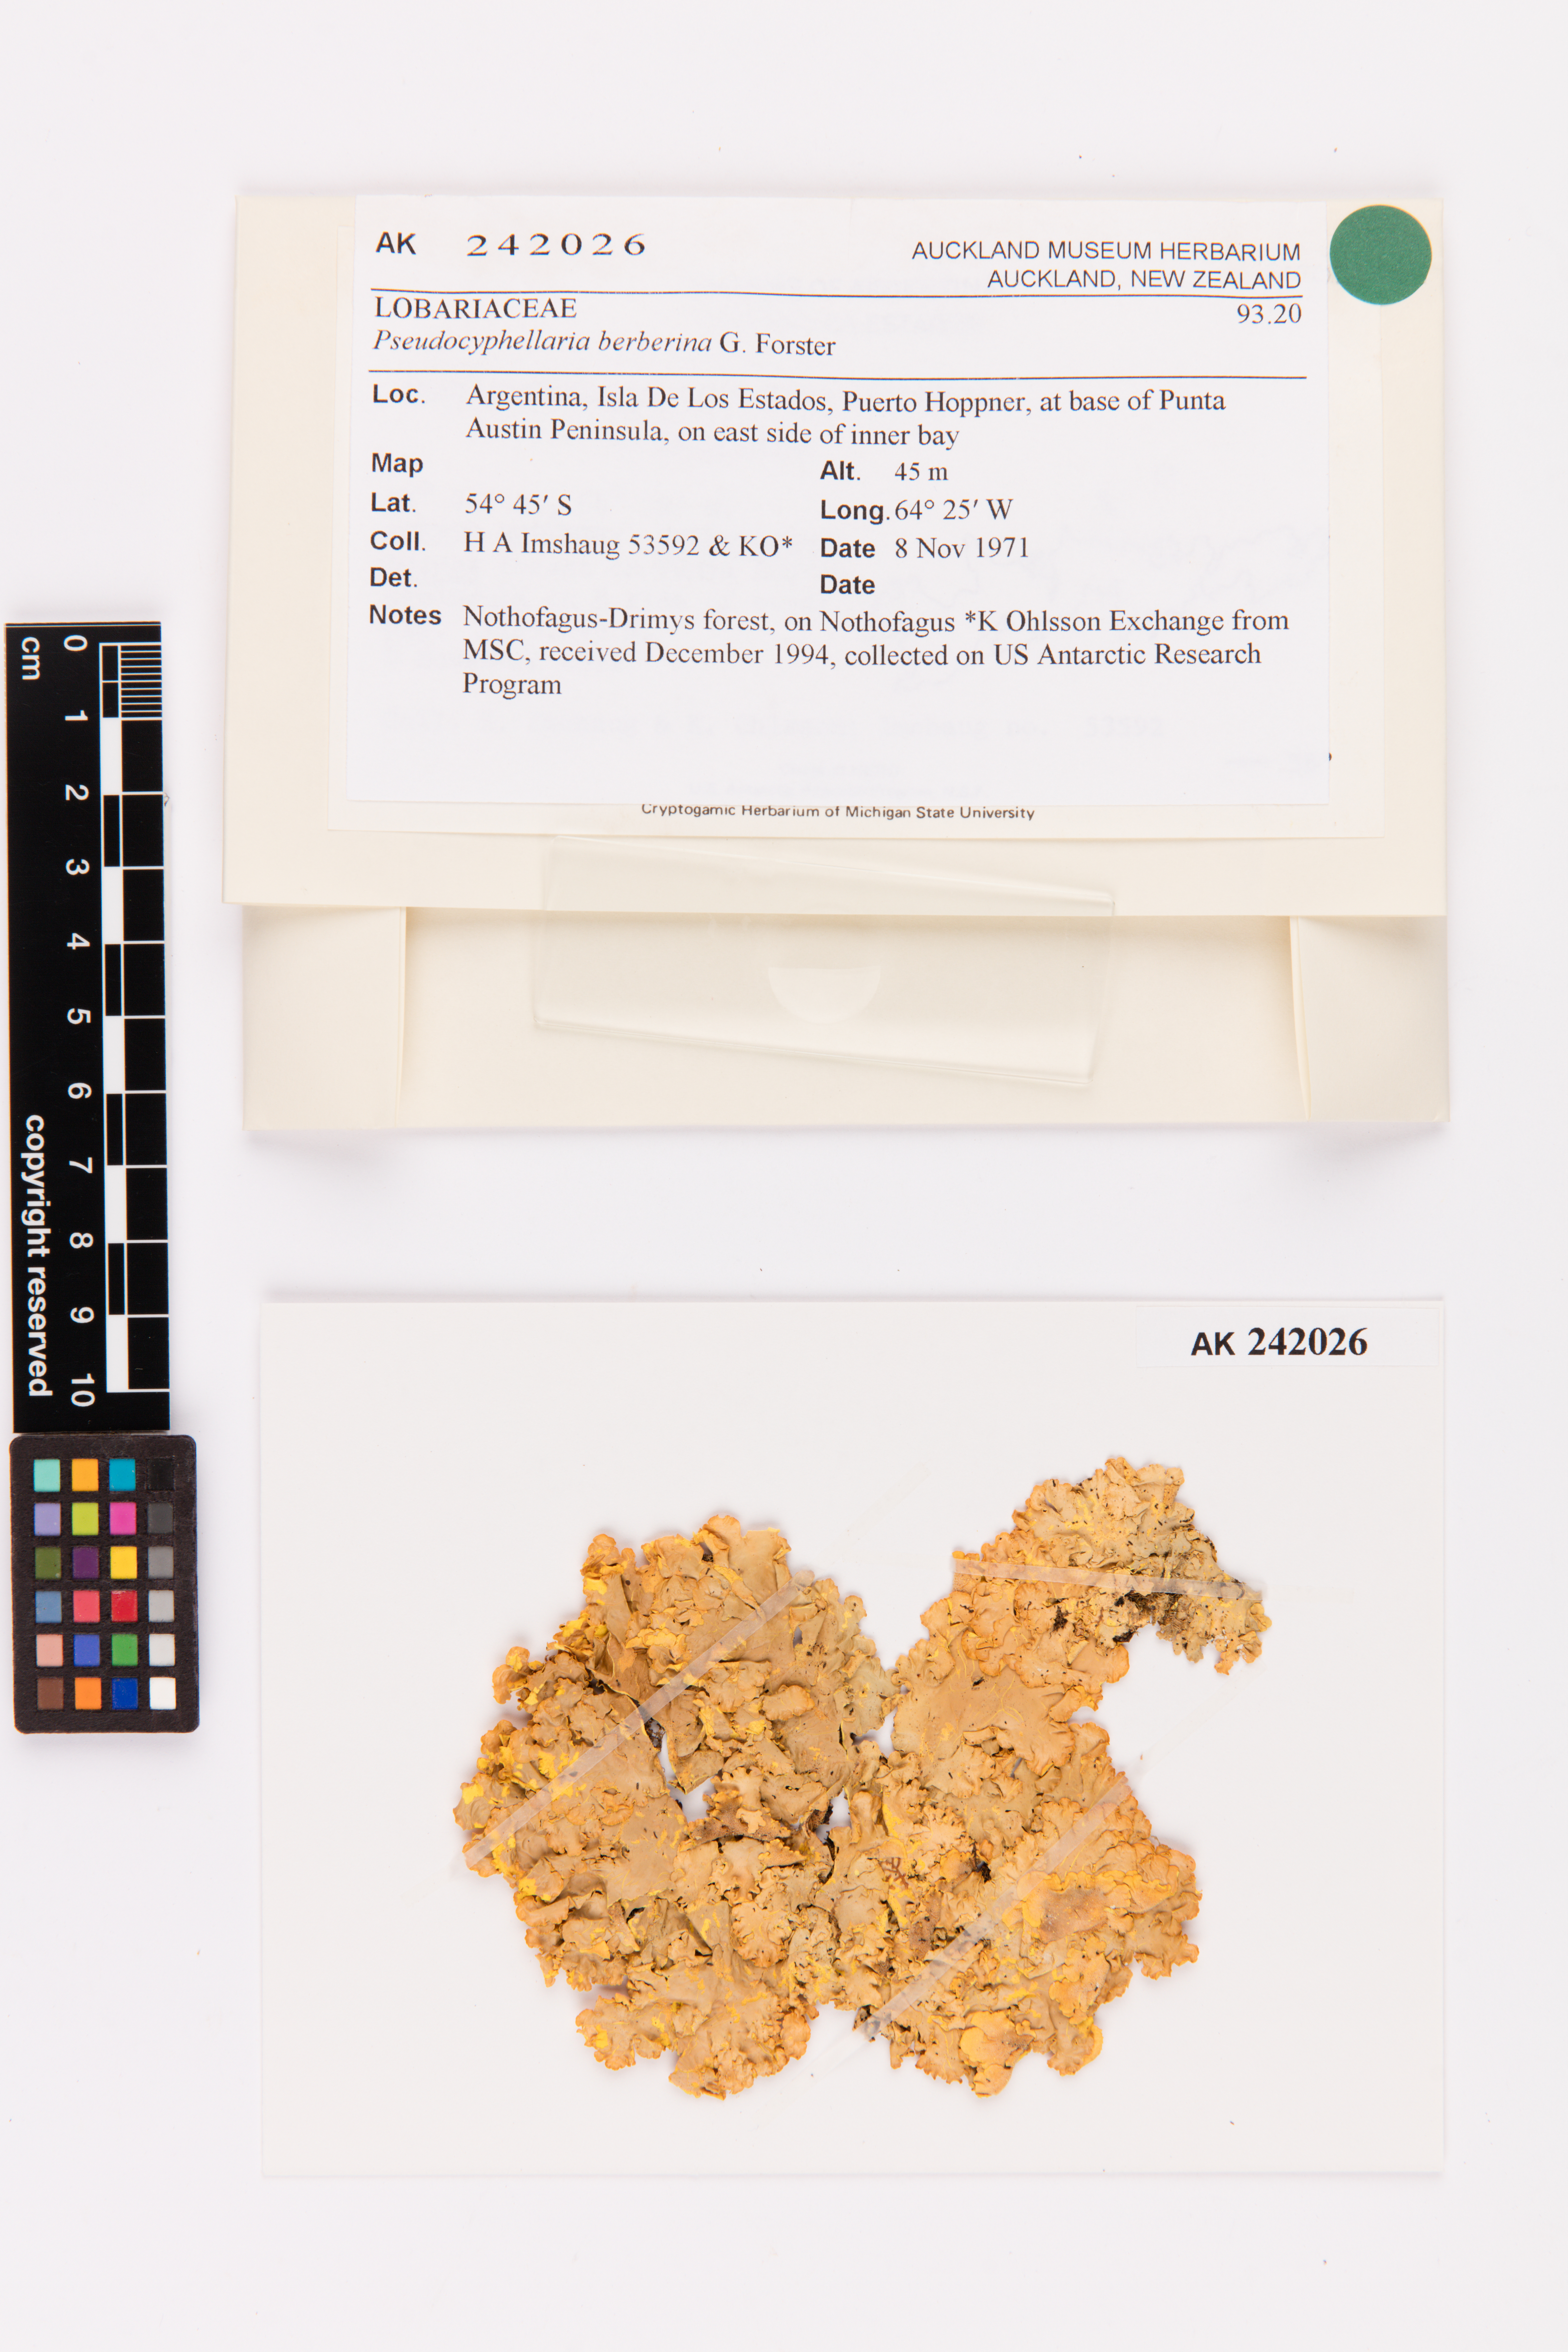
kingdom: Fungi
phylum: Ascomycota
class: Lecanoromycetes
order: Peltigerales
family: Lobariaceae
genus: Podostictina
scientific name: Podostictina berberina
